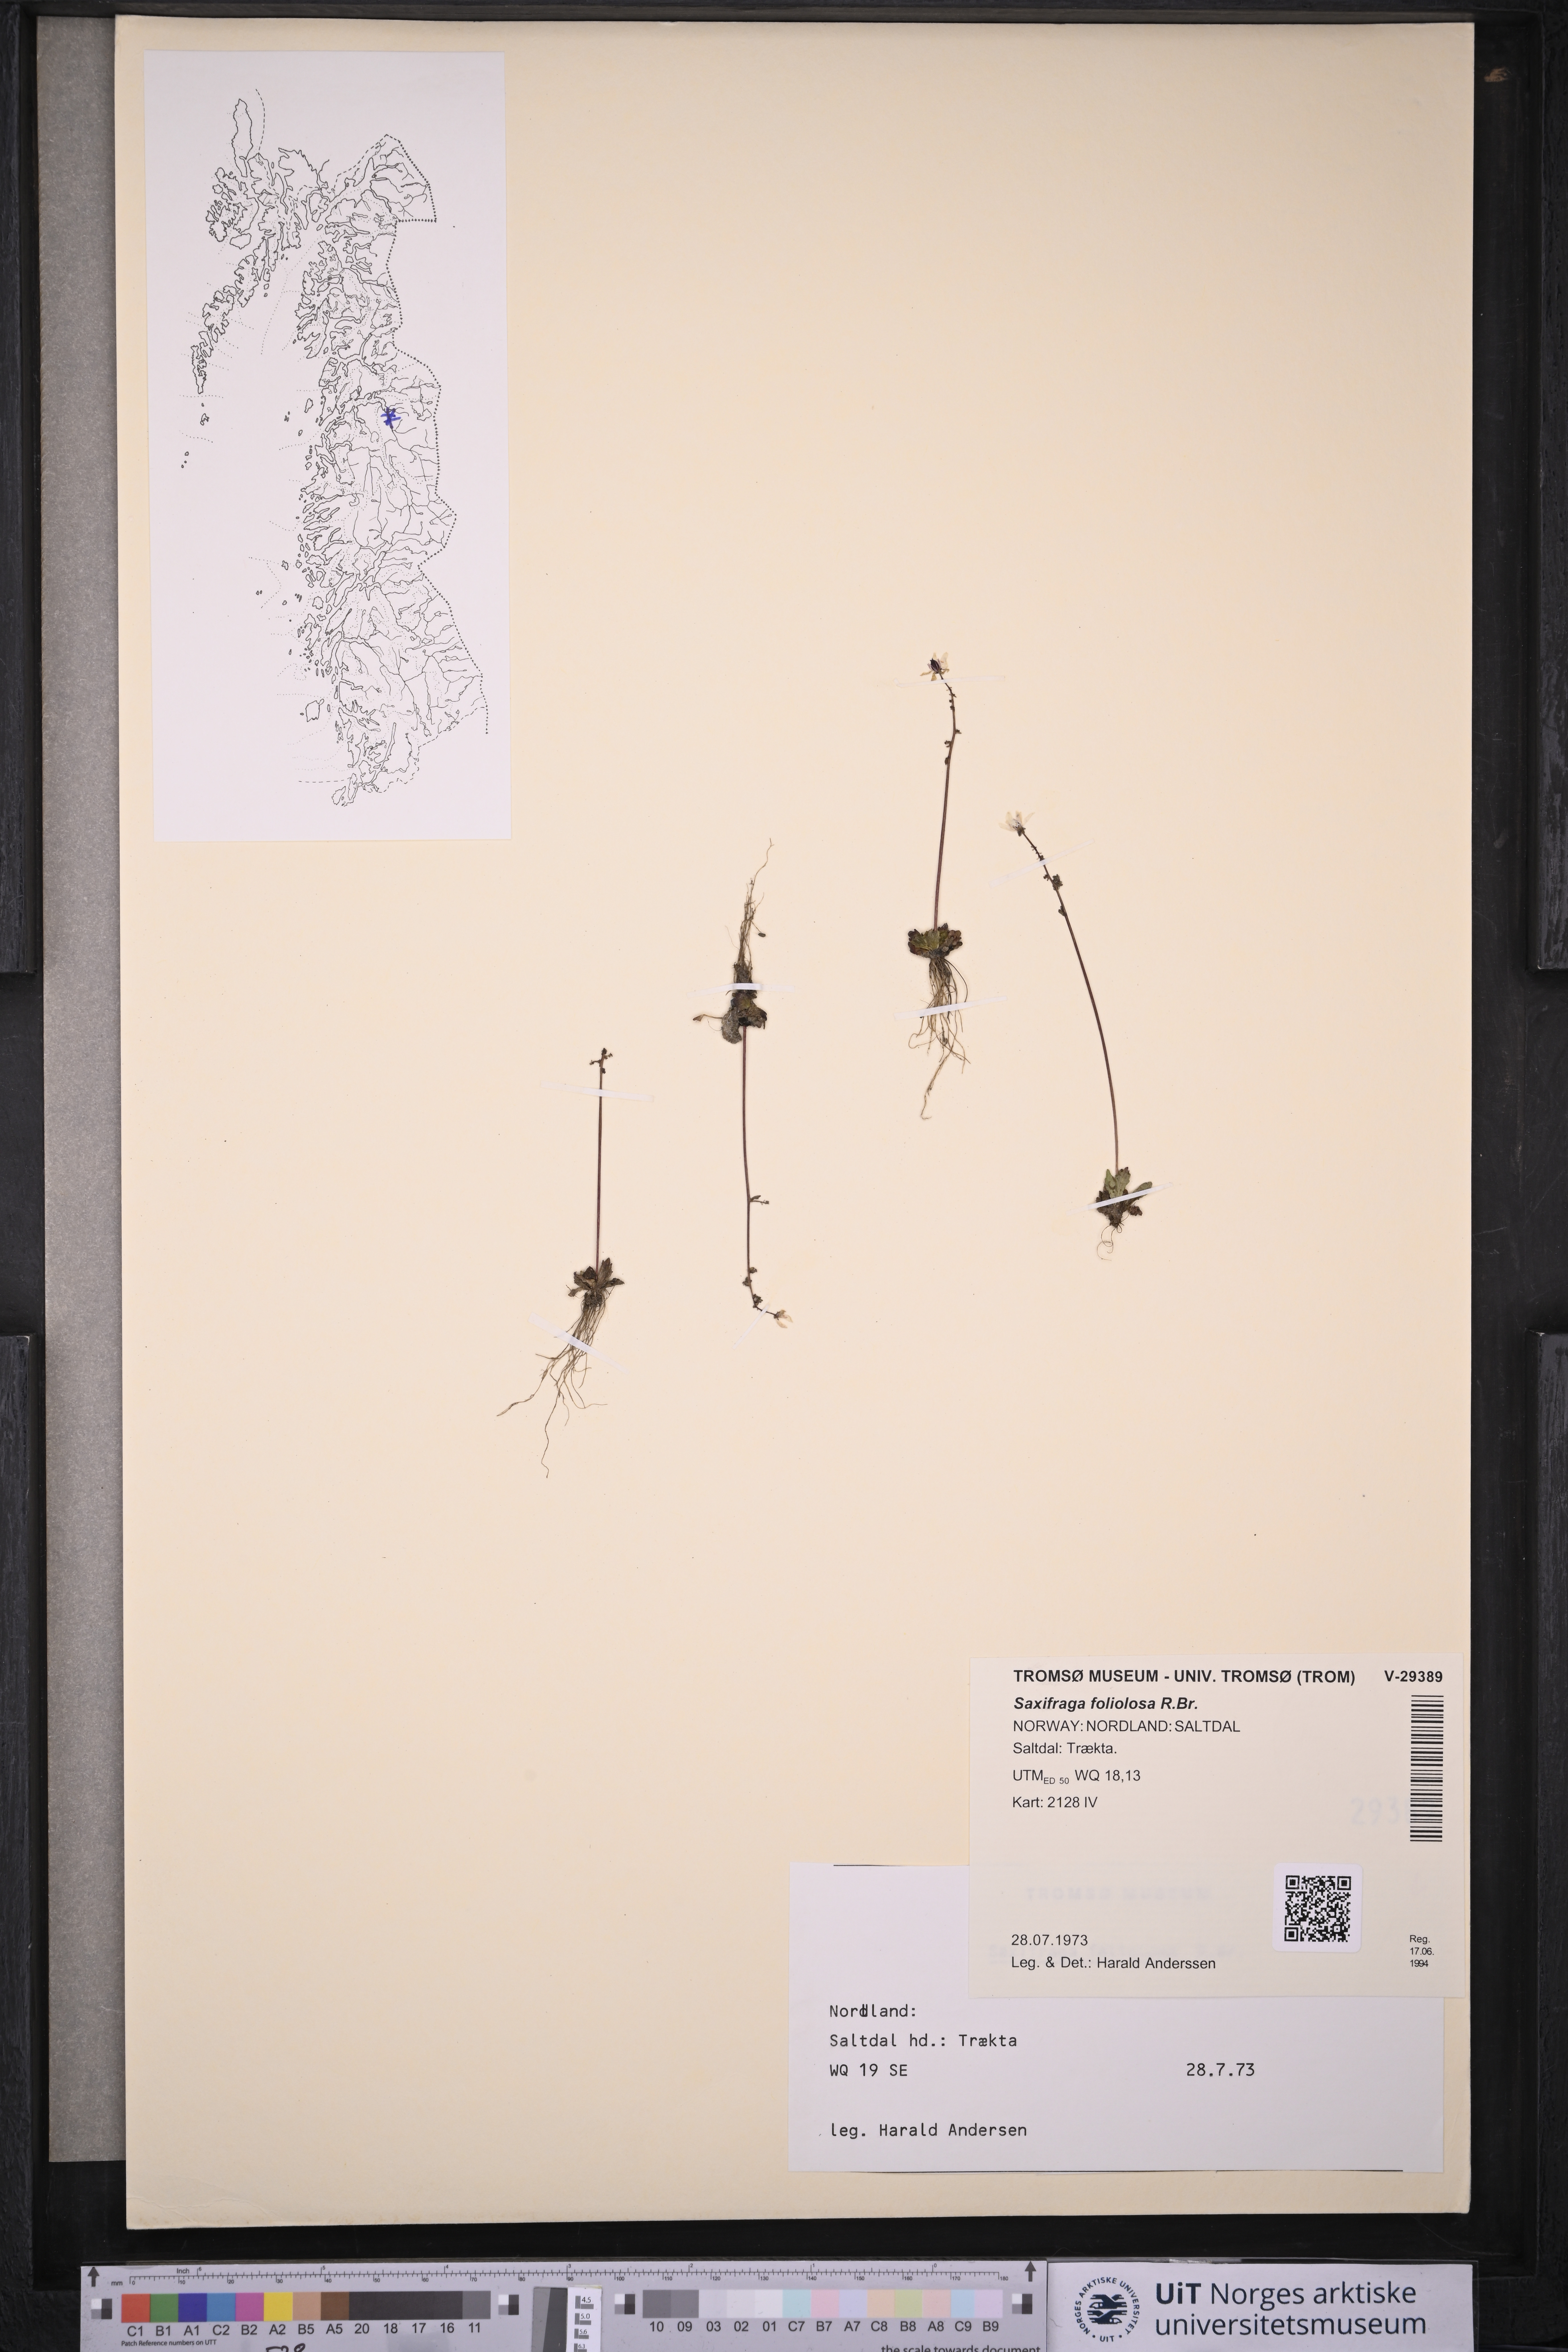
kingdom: Plantae
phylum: Tracheophyta
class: Magnoliopsida
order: Saxifragales
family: Saxifragaceae
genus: Micranthes
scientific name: Micranthes foliolosa
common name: Leafystem saxifrage
